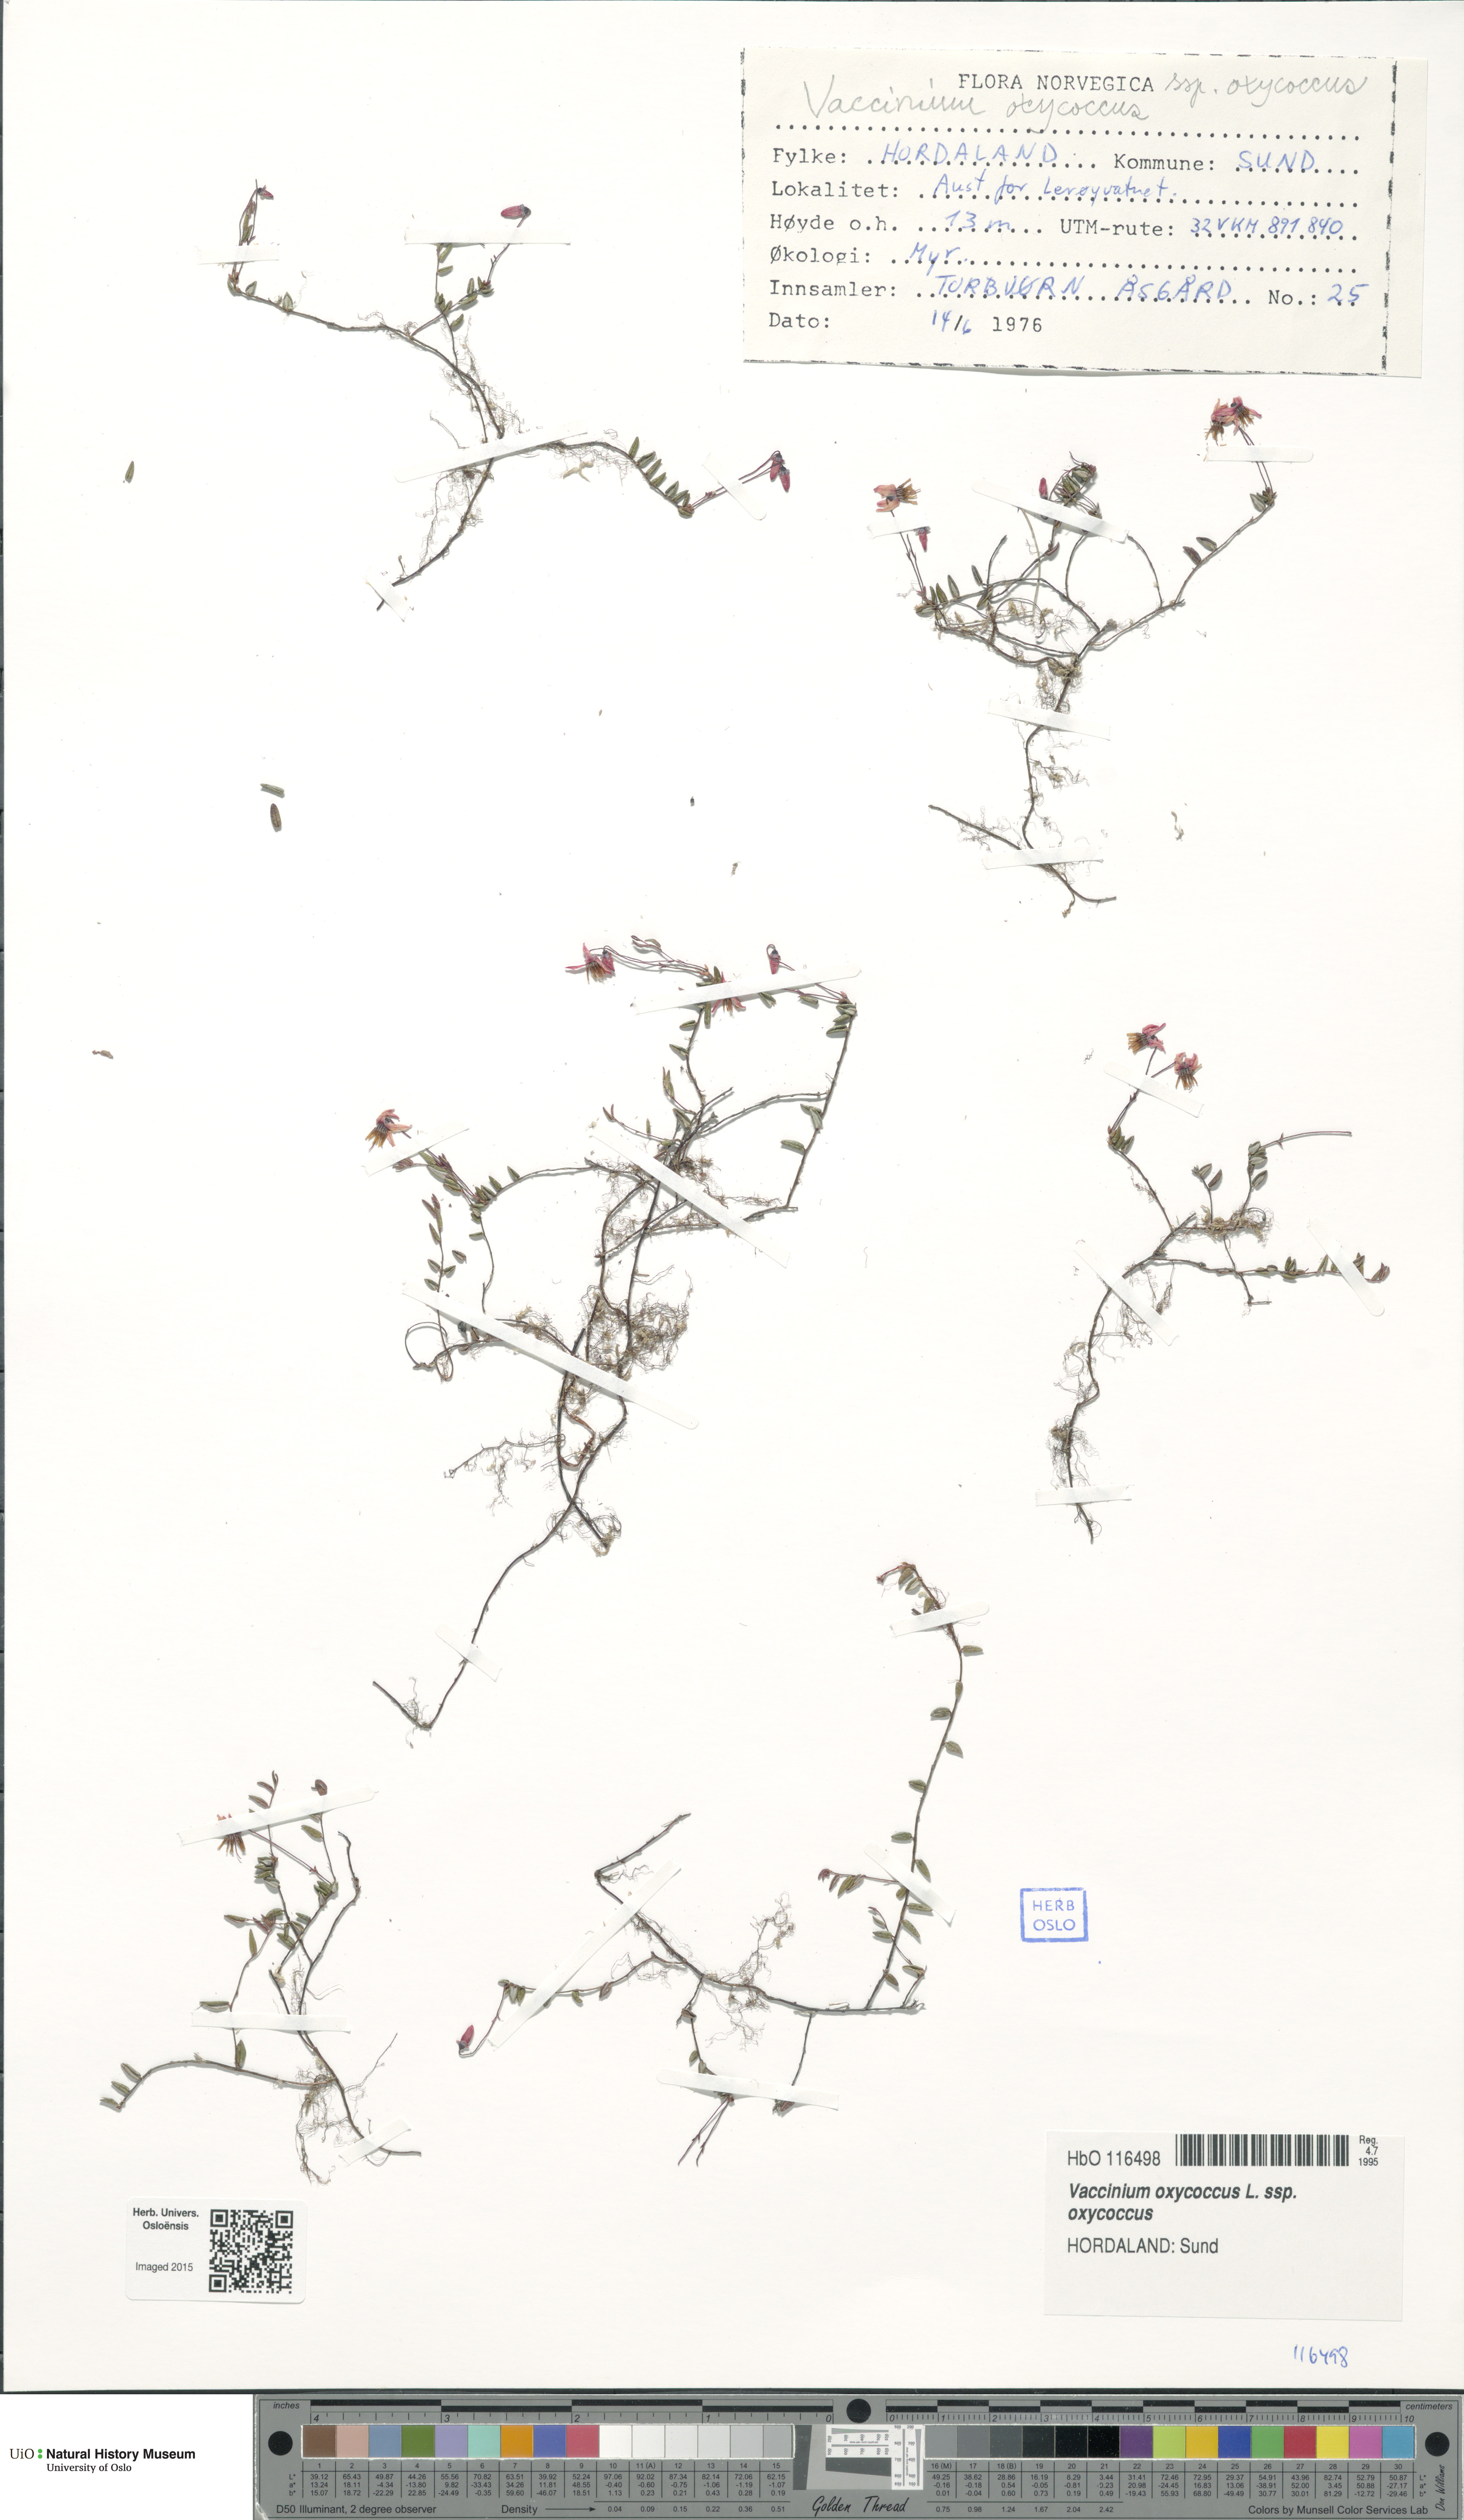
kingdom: Plantae
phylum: Tracheophyta
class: Magnoliopsida
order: Ericales
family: Ericaceae
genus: Vaccinium
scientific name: Vaccinium oxycoccos
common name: Cranberry
